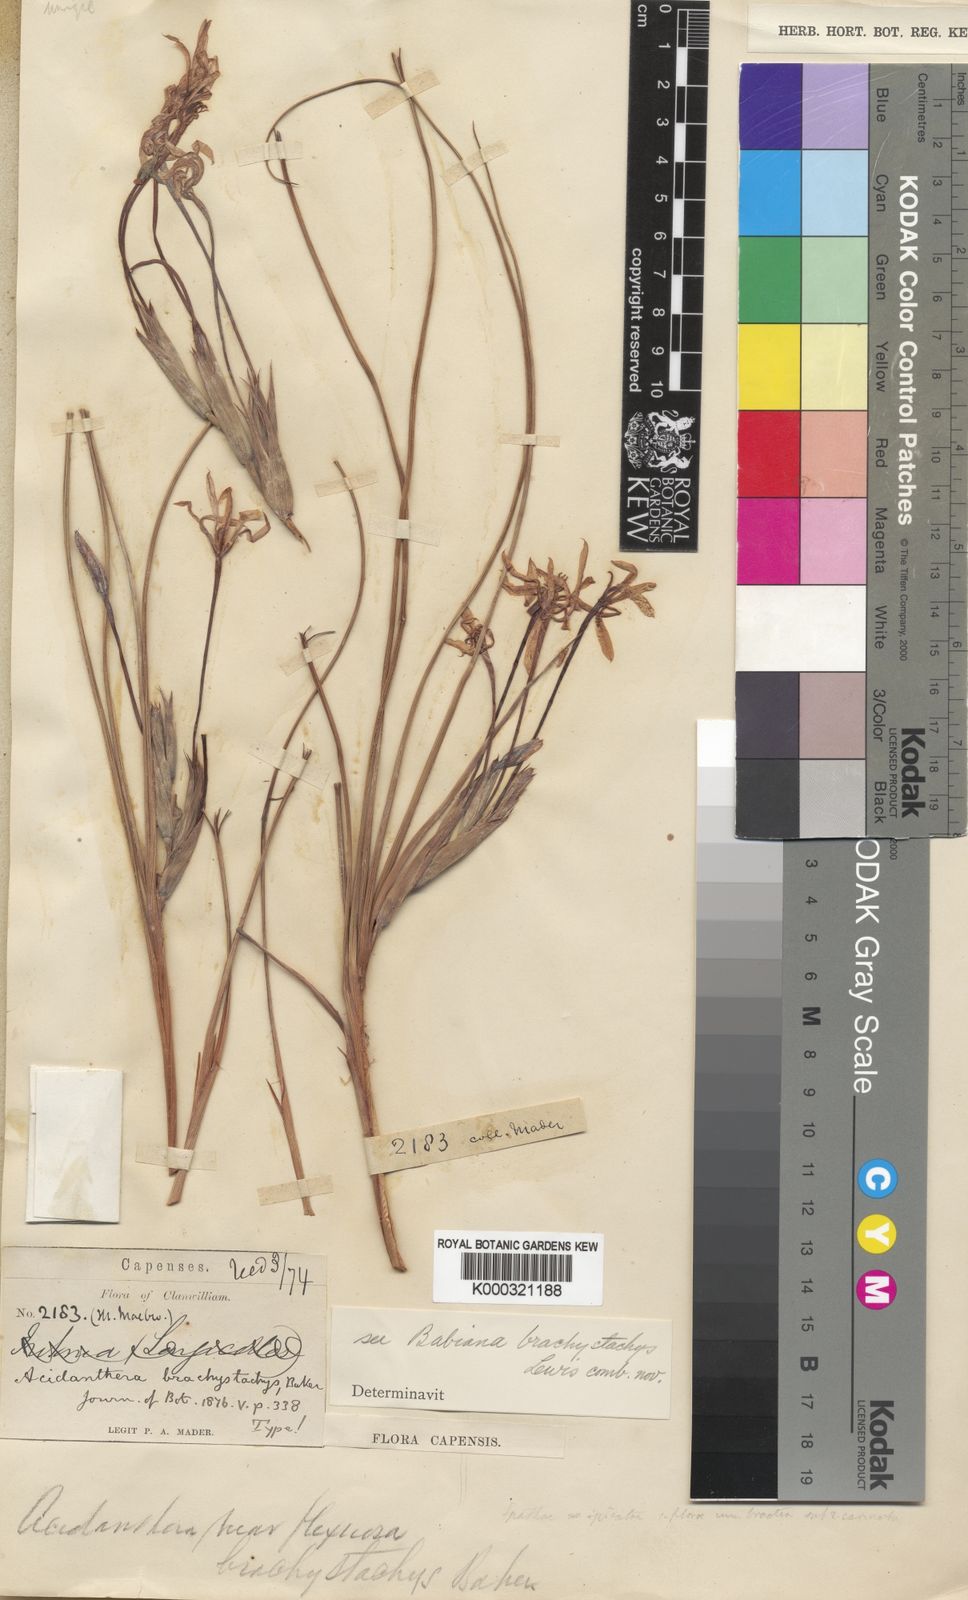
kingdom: Plantae
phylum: Tracheophyta
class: Liliopsida
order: Asparagales
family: Iridaceae
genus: Babiana
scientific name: Babiana brachystachys
